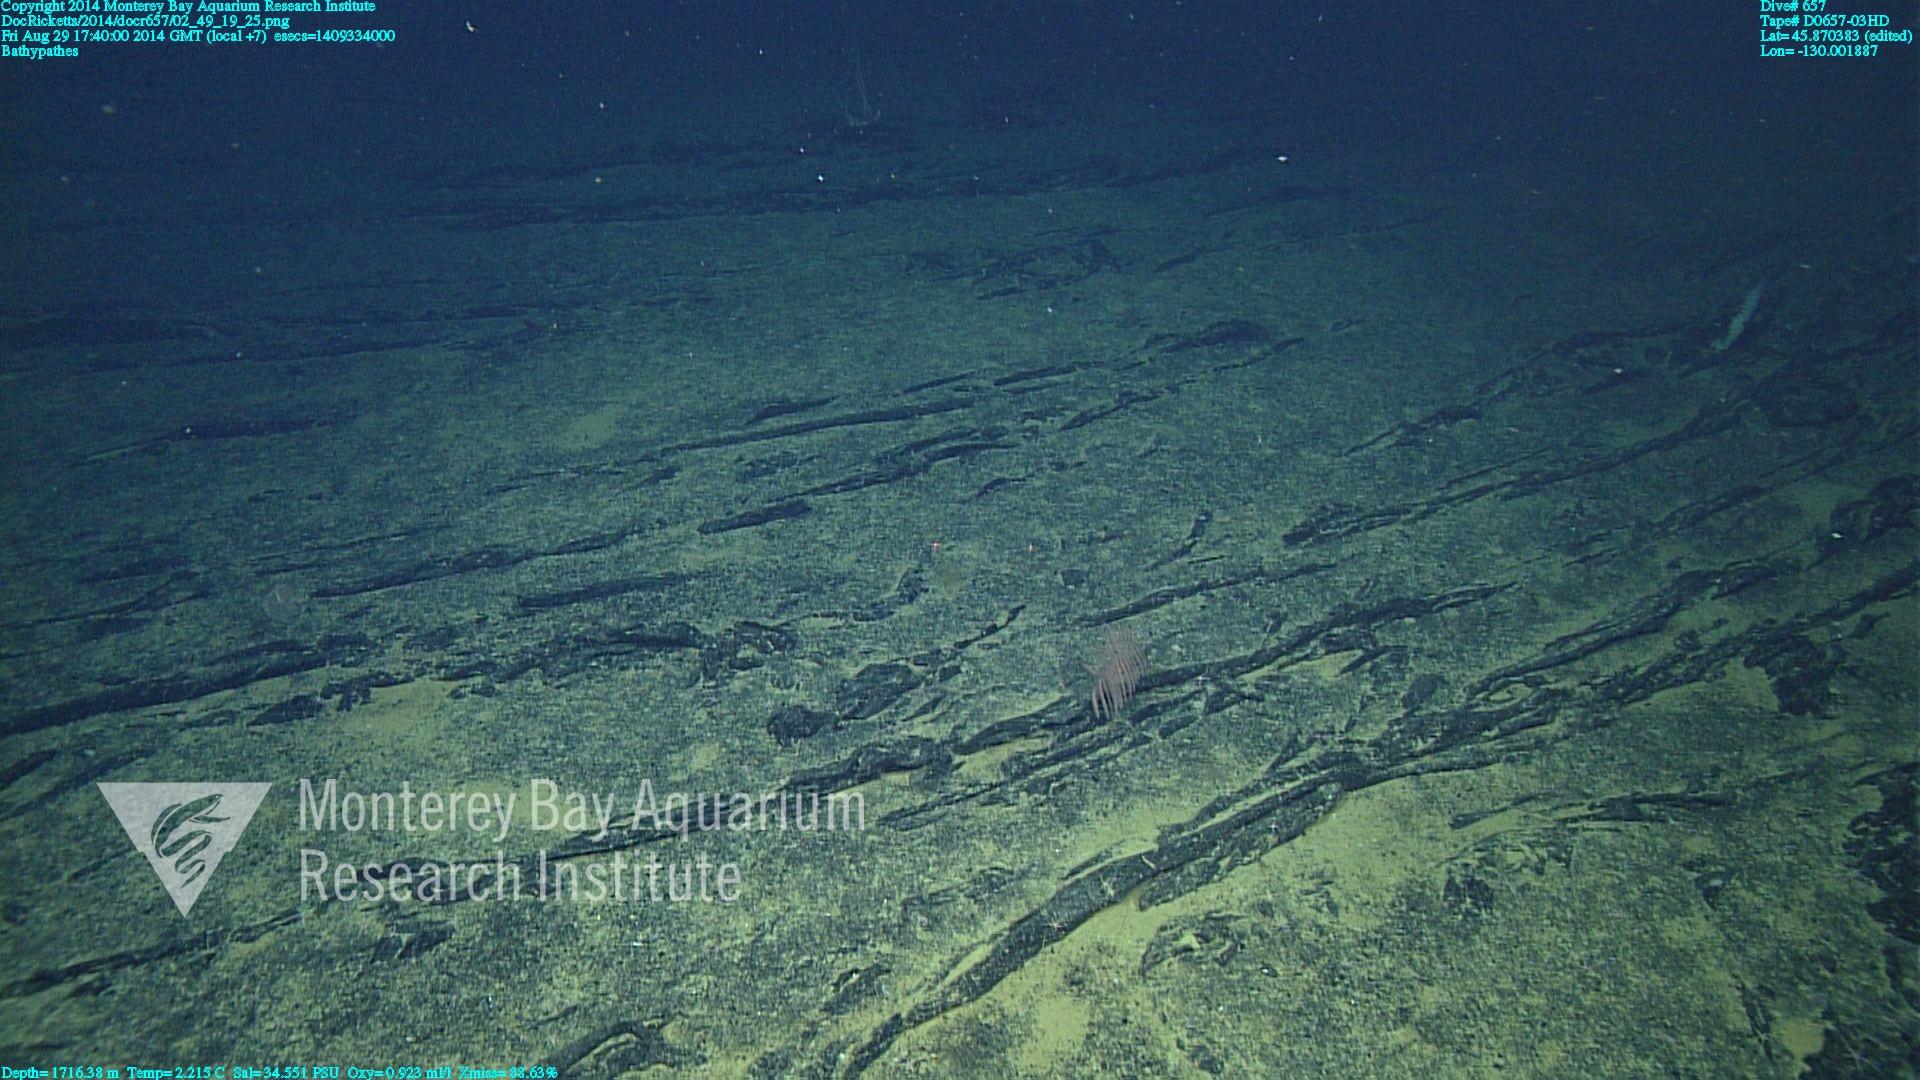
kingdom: Animalia
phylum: Cnidaria
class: Anthozoa
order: Antipatharia
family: Schizopathidae
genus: Bathypathes
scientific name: Bathypathes
